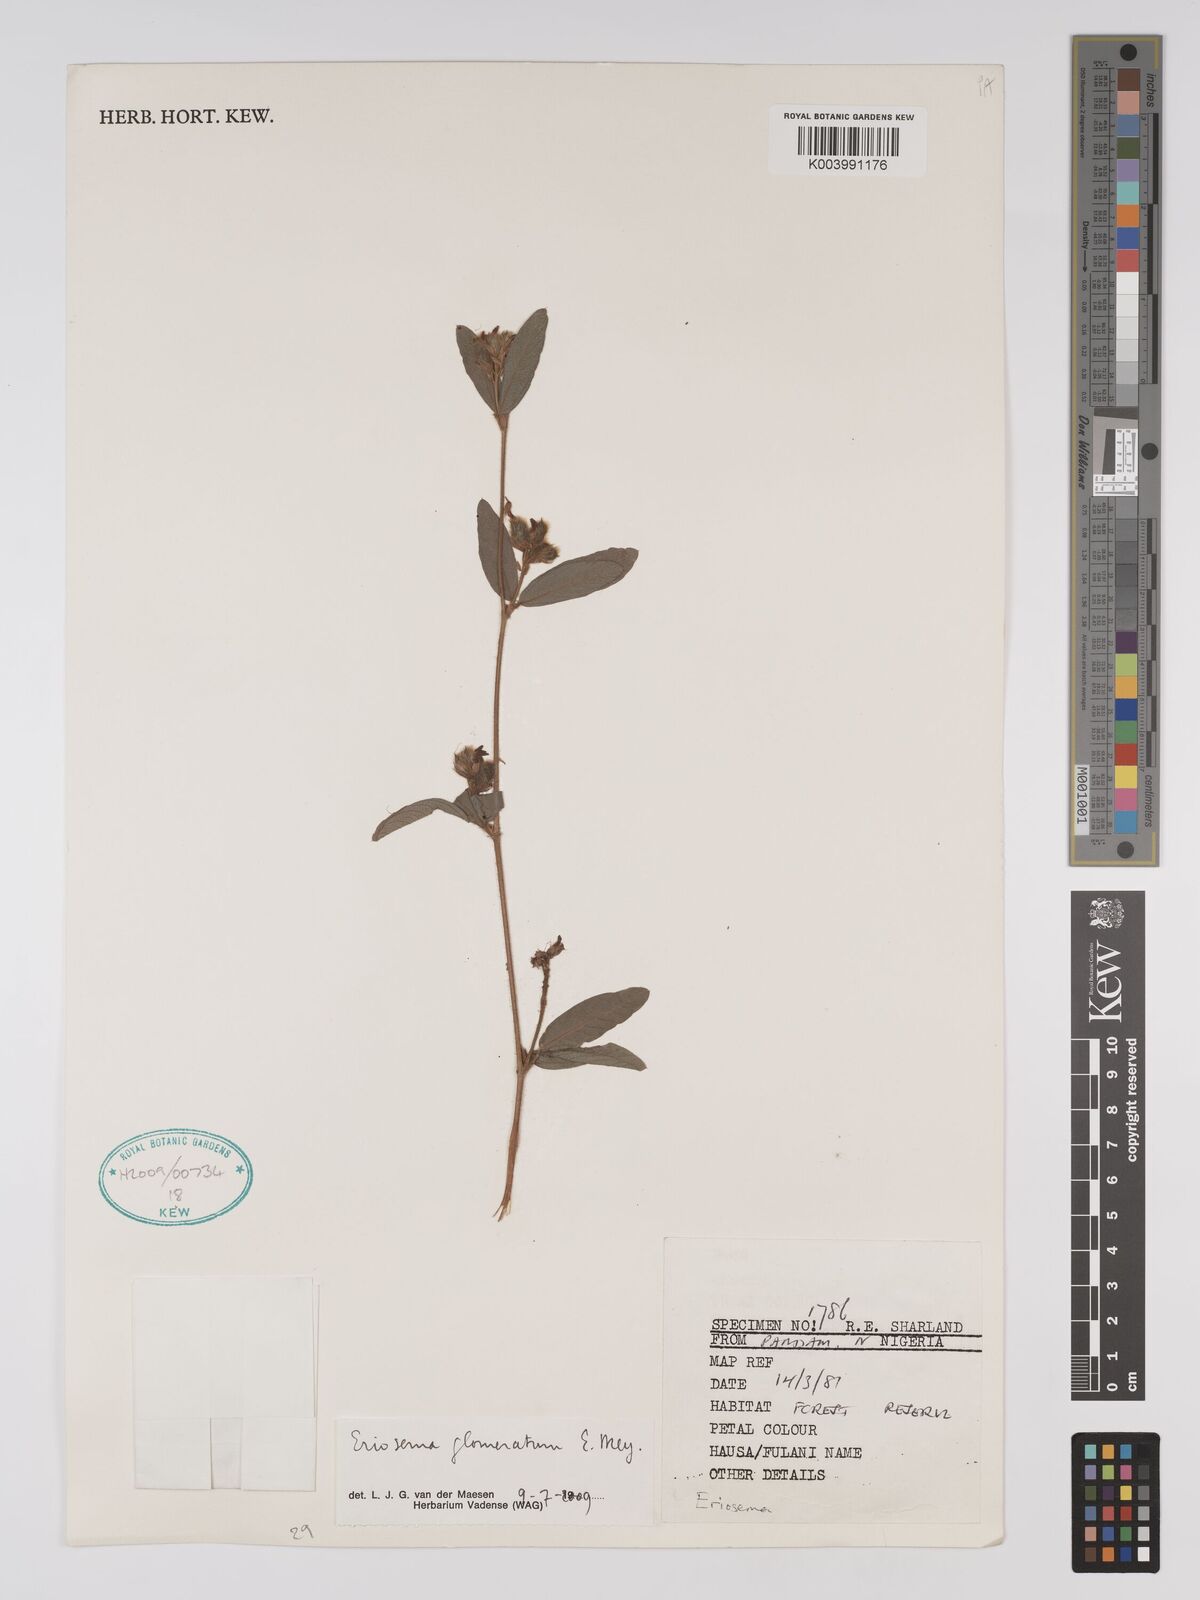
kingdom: Plantae
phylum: Tracheophyta
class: Magnoliopsida
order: Fabales
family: Fabaceae
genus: Eriosema
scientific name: Eriosema glomeratum
